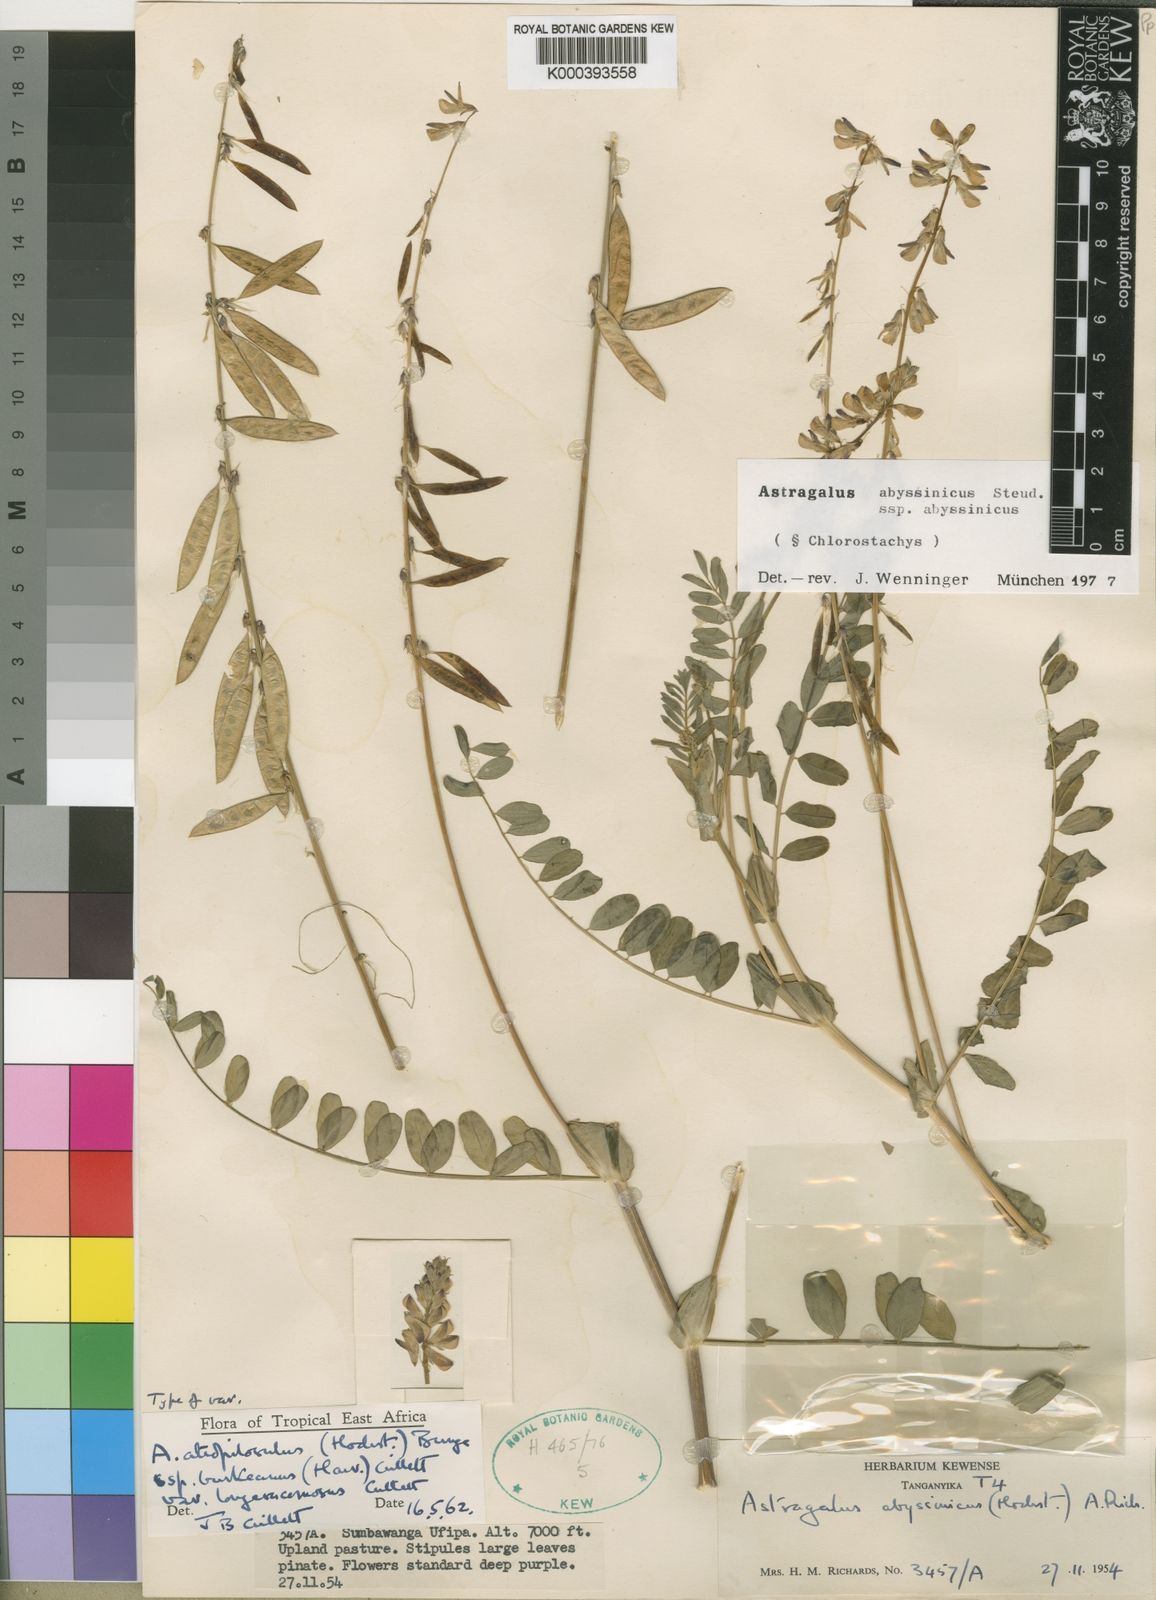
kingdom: Plantae
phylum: Tracheophyta
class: Magnoliopsida
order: Fabales
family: Fabaceae
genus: Astragalus
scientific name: Astragalus atropilosulus
